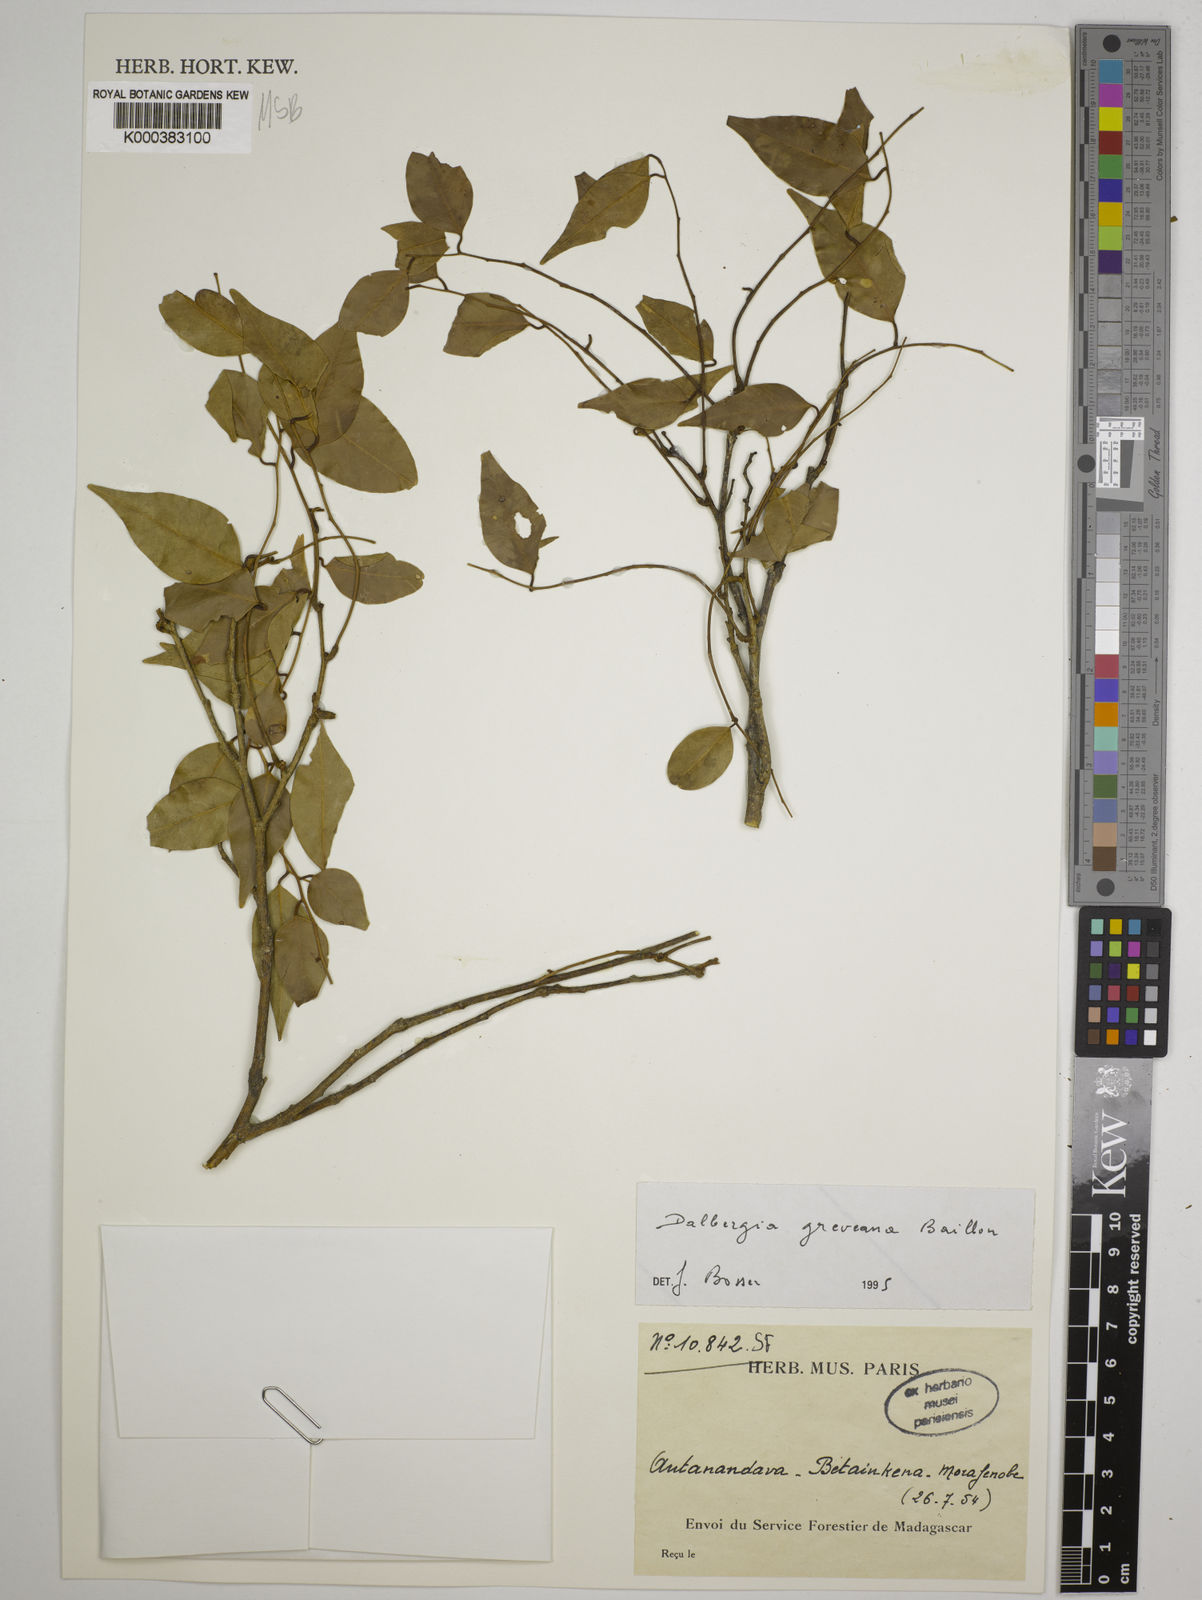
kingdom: Plantae
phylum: Tracheophyta
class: Magnoliopsida
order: Fabales
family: Fabaceae
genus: Dalbergia
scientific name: Dalbergia greveana
